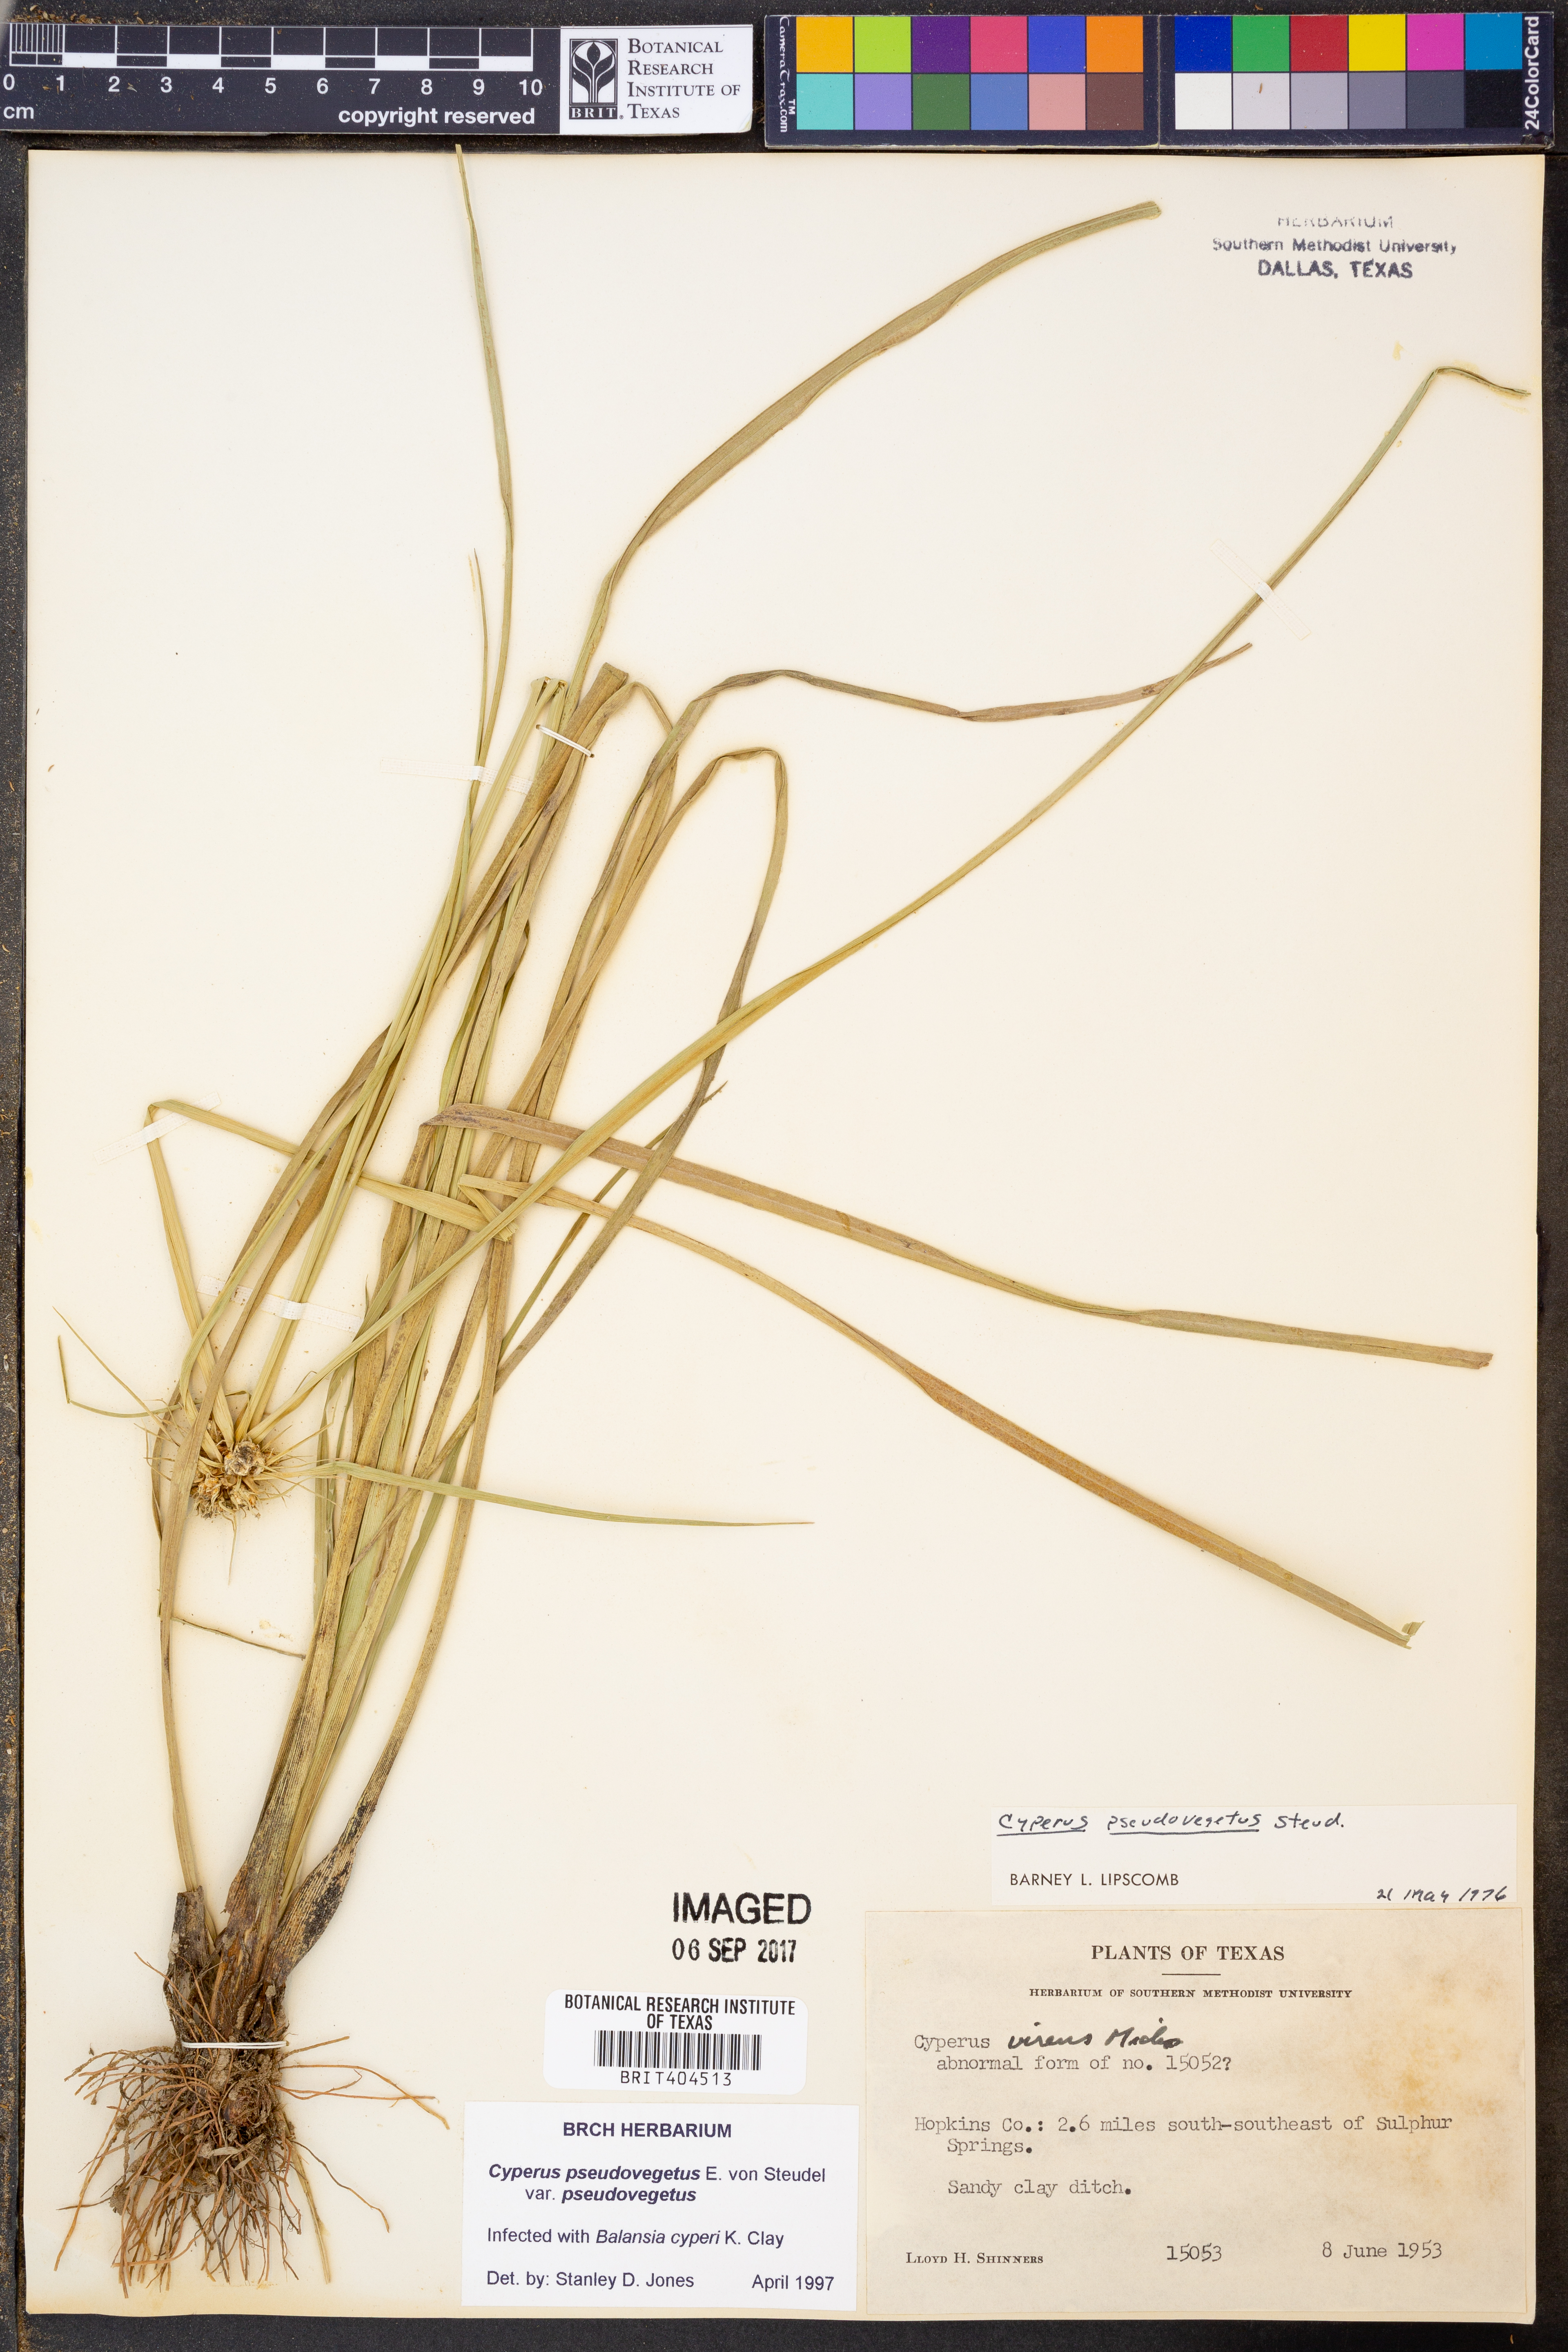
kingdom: Plantae
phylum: Tracheophyta
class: Liliopsida
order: Poales
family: Cyperaceae
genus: Cyperus
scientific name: Cyperus pseudovegetus
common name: Marsh flat sedge
